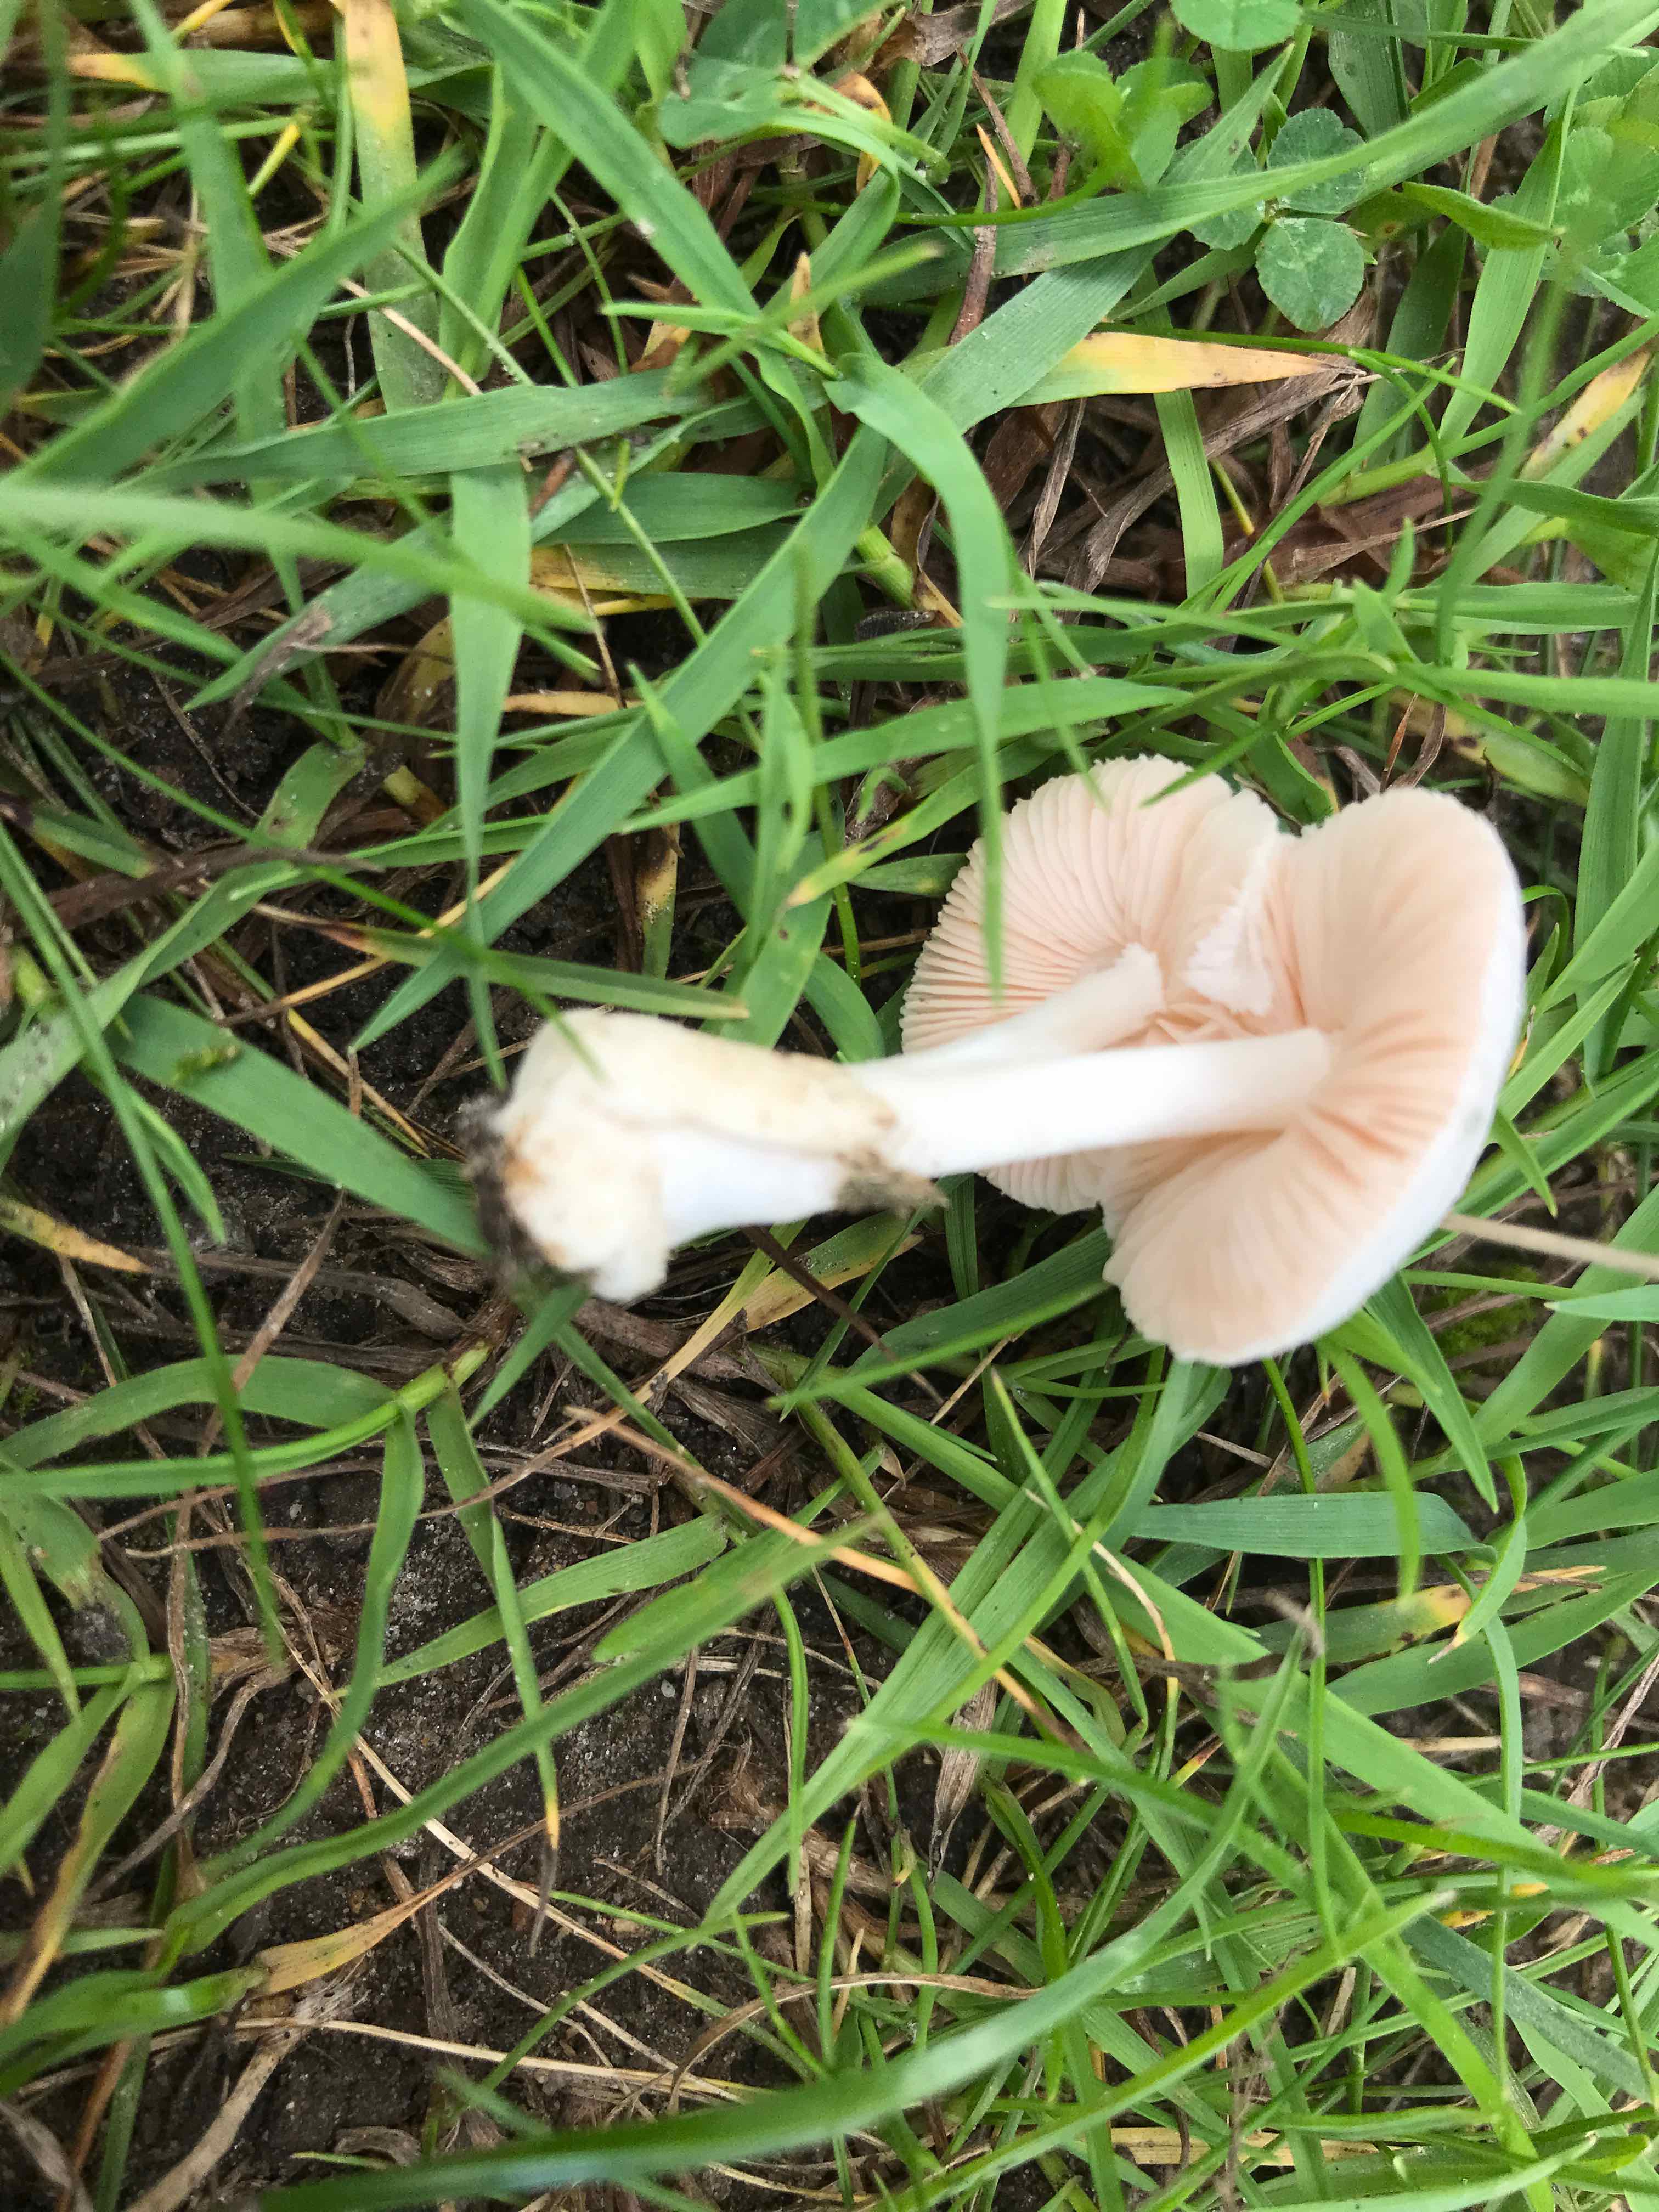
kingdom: Fungi
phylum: Basidiomycota
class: Agaricomycetes
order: Agaricales
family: Pluteaceae
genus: Volvariella
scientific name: Volvariella
